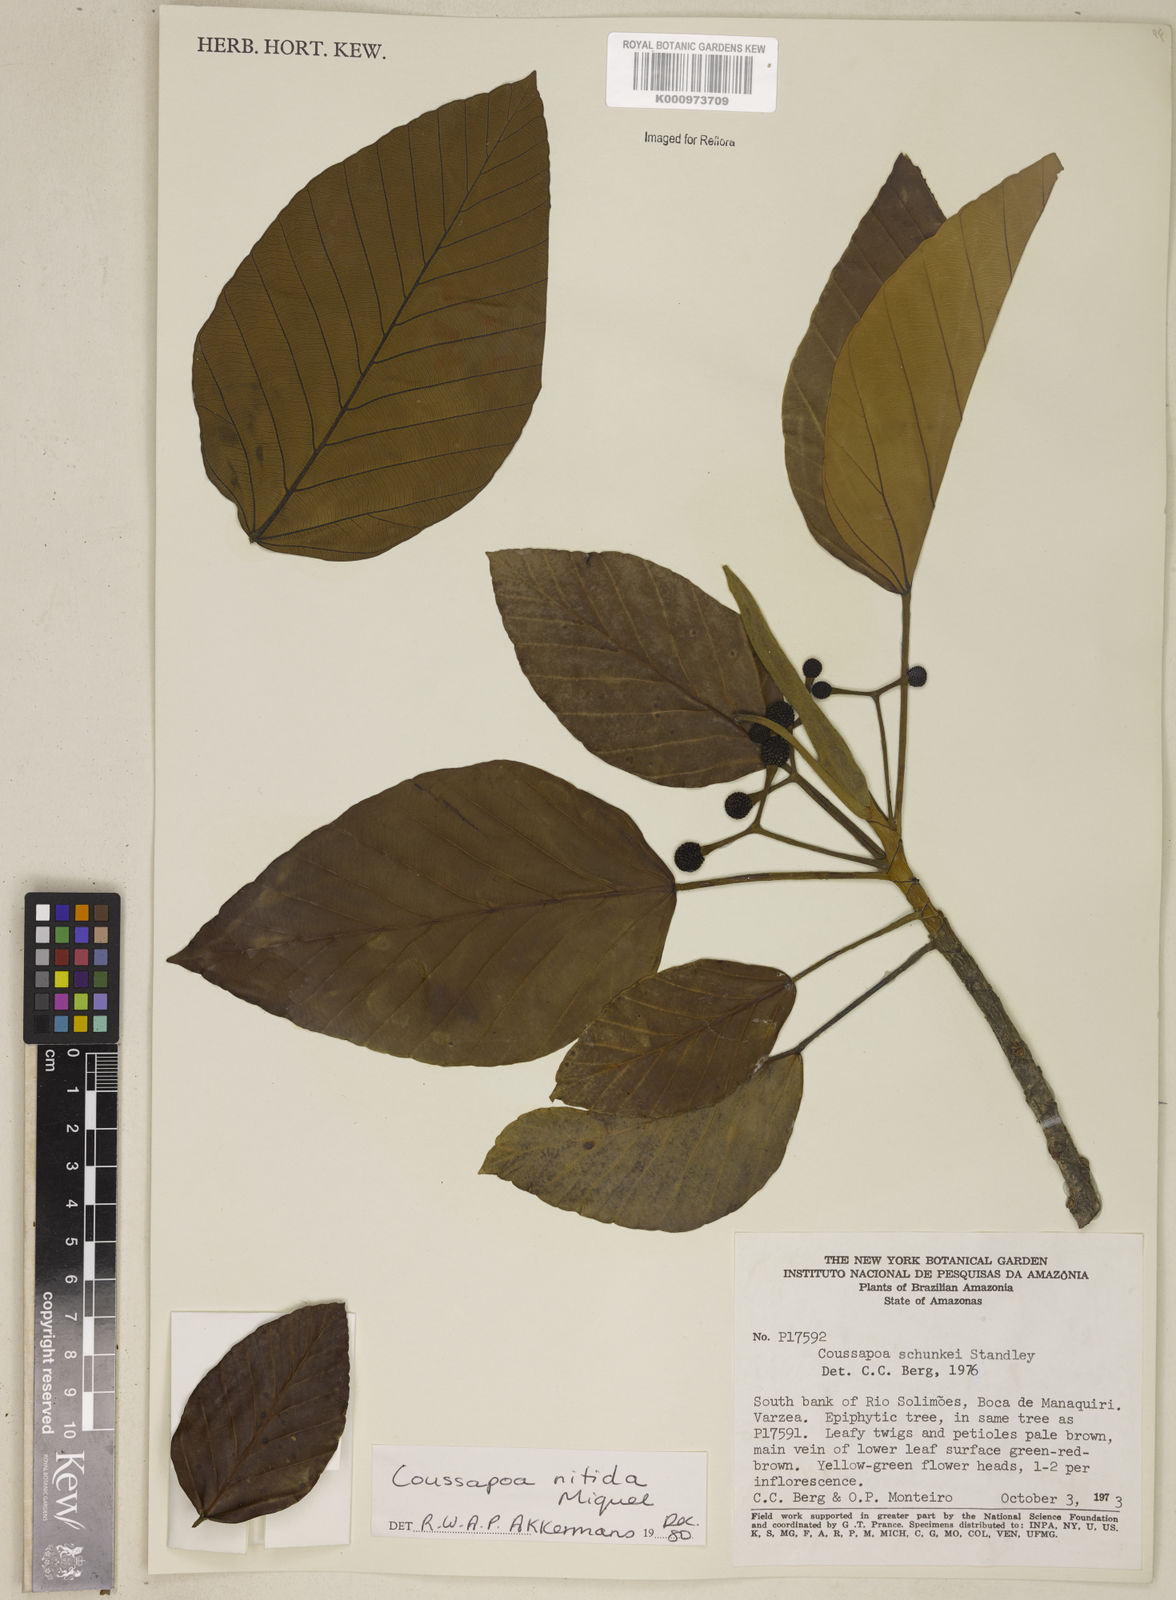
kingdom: Plantae
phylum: Tracheophyta
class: Magnoliopsida
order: Rosales
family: Urticaceae
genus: Coussapoa
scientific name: Coussapoa nitida
